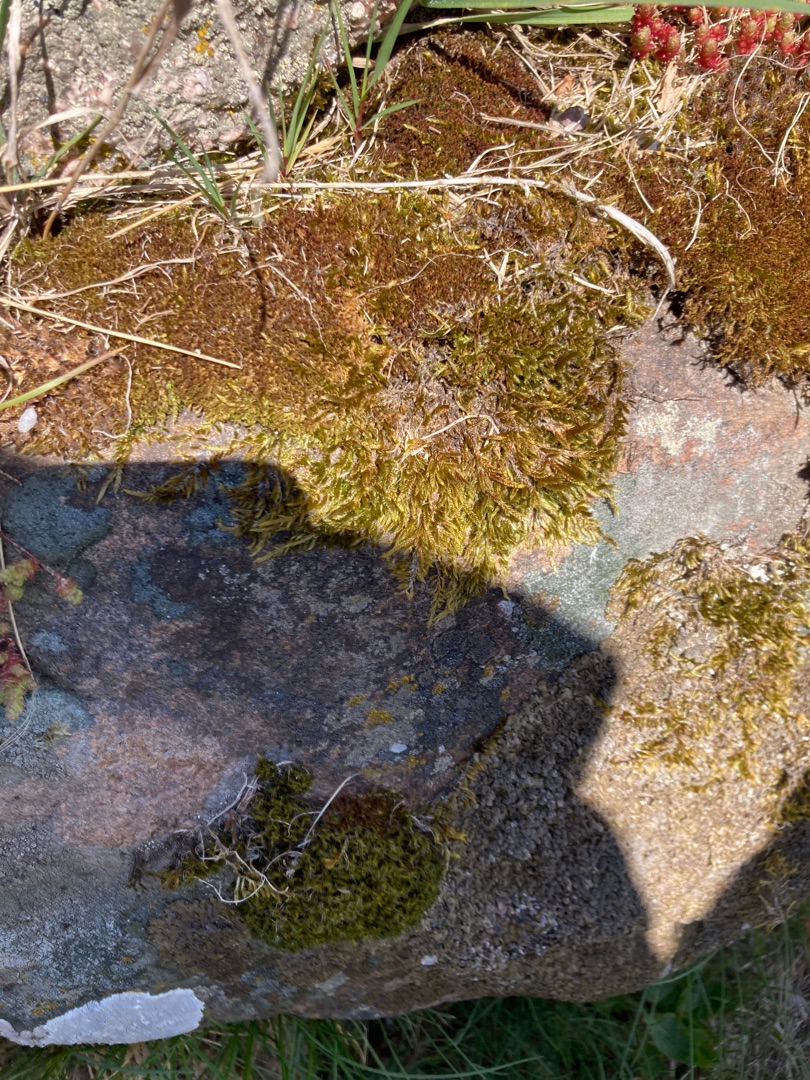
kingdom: Plantae
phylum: Bryophyta
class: Bryopsida
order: Hypnales
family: Hypnaceae
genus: Hypnum
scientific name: Hypnum cupressiforme
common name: Almindelig cypresmos
